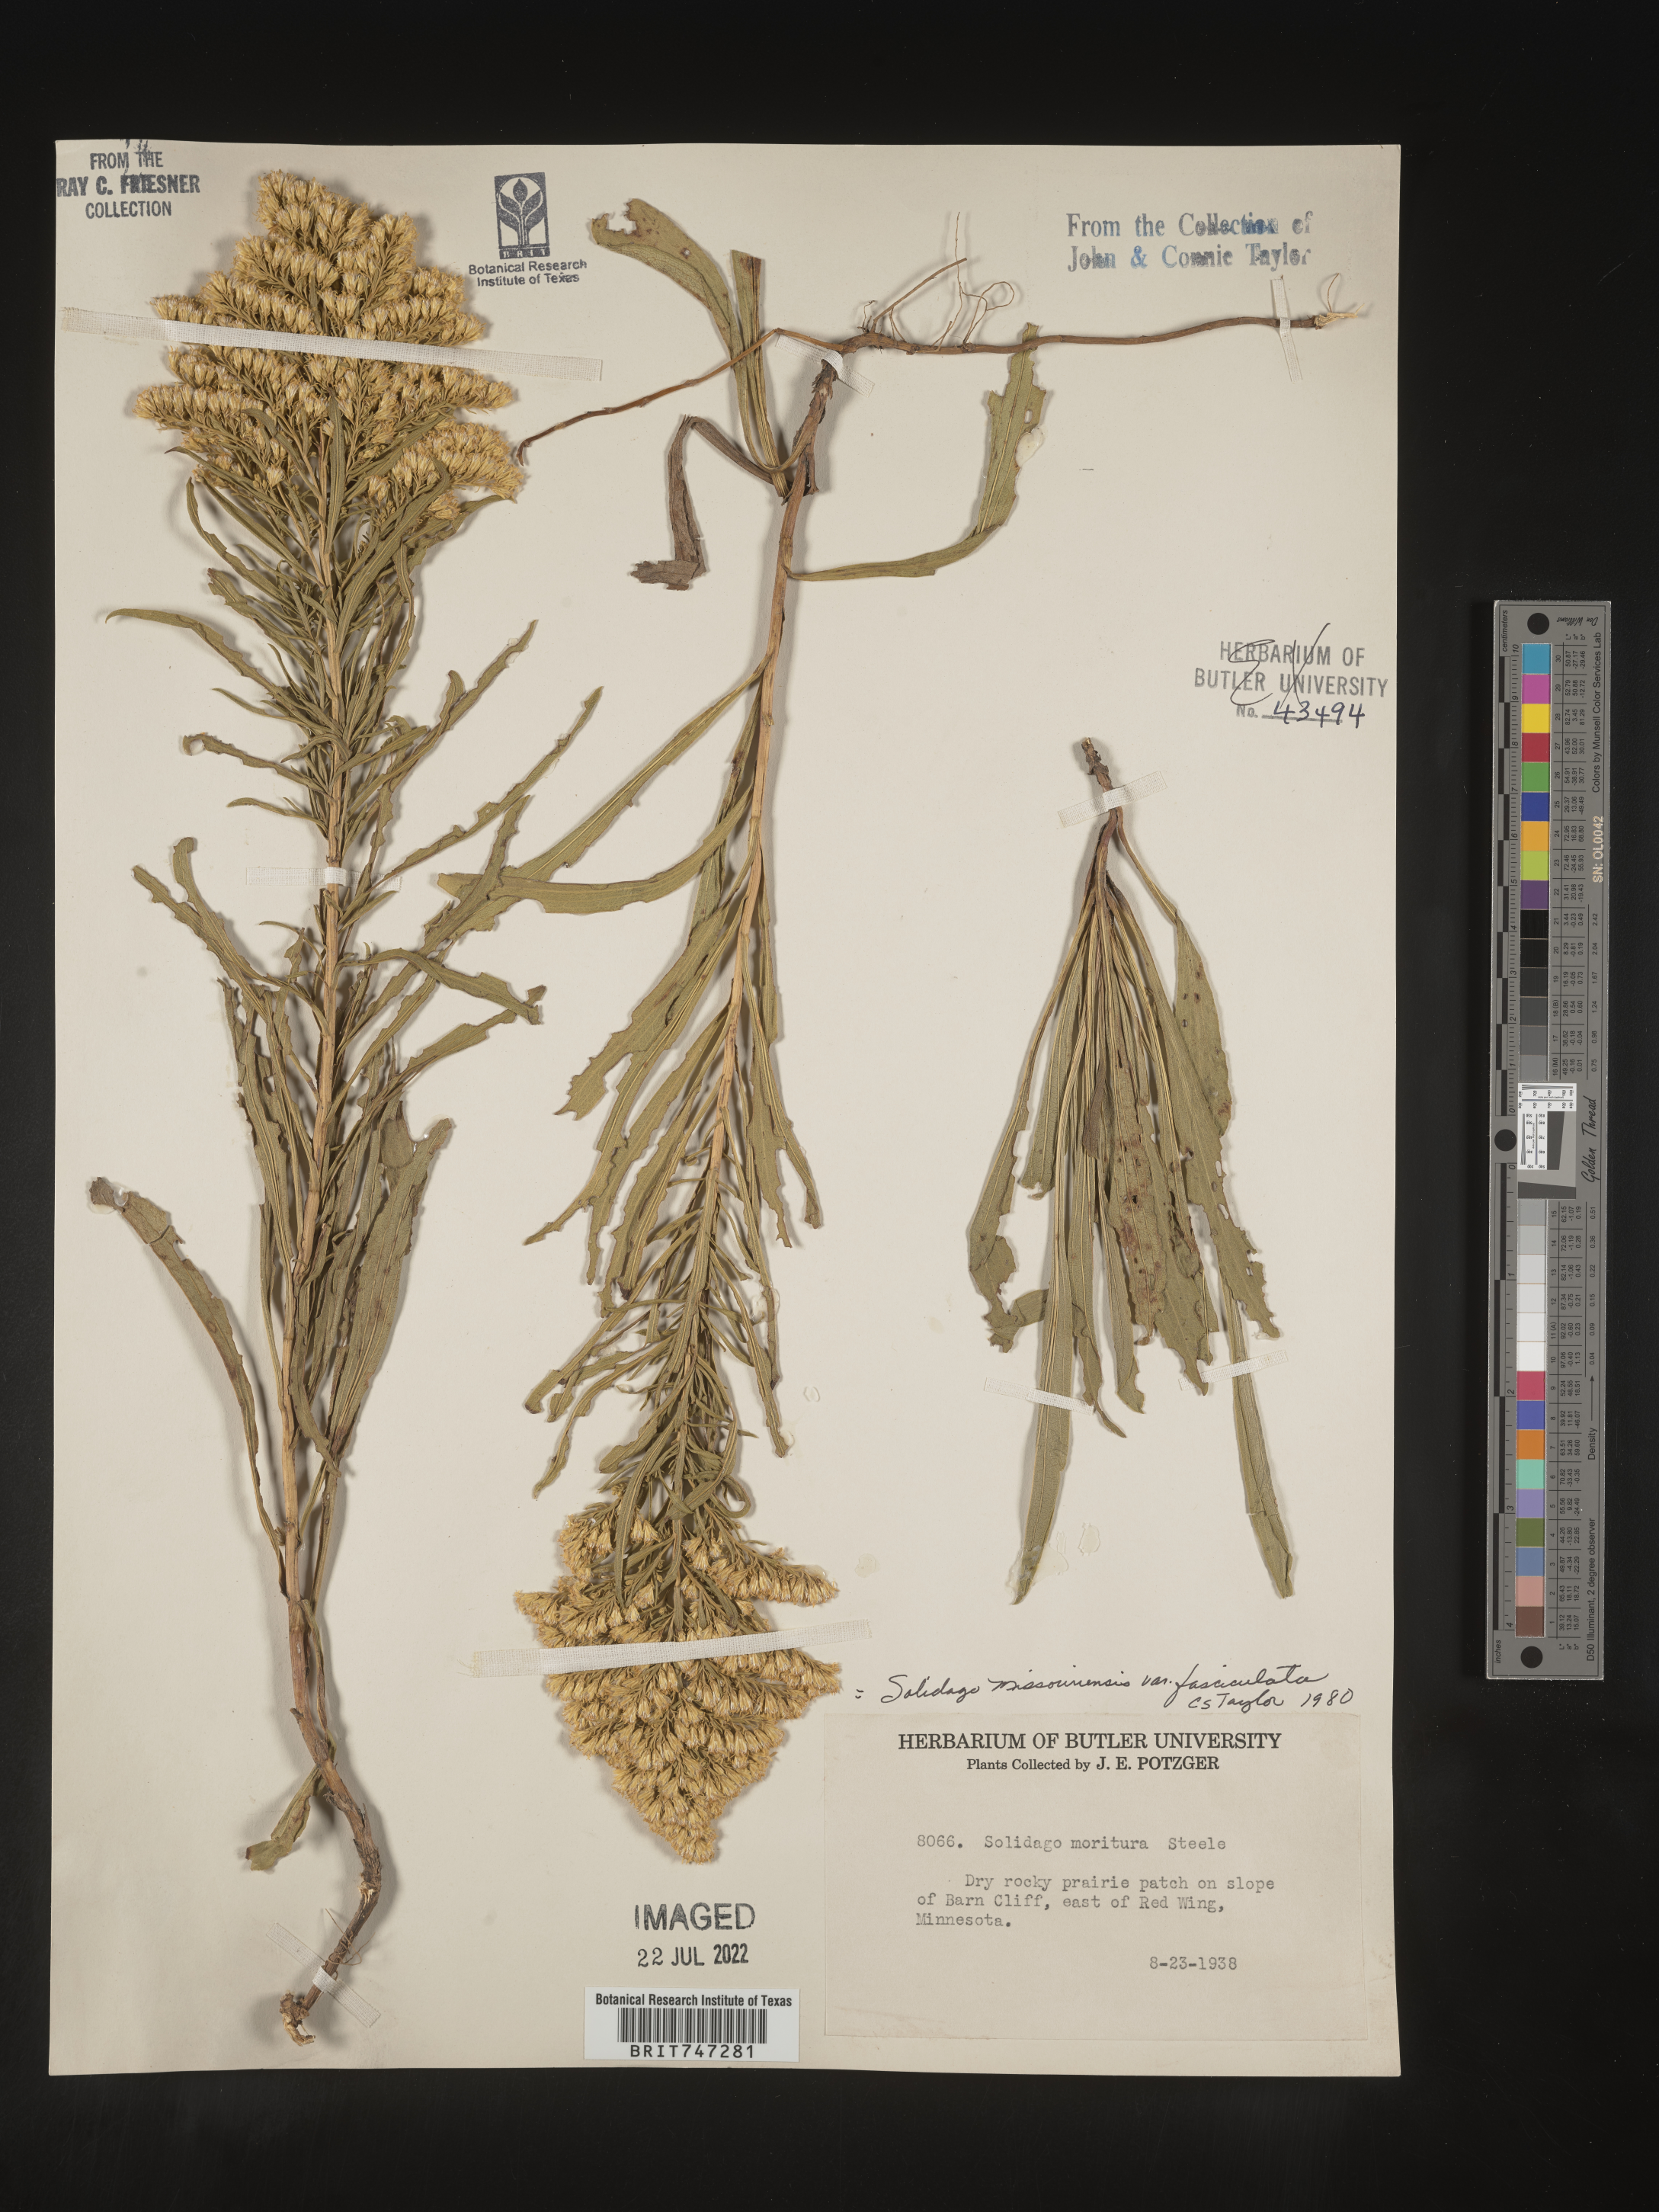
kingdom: Plantae
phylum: Tracheophyta
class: Magnoliopsida
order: Asterales
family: Asteraceae
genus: Solidago
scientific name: Solidago missouriensis
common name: Prairie goldenrod
